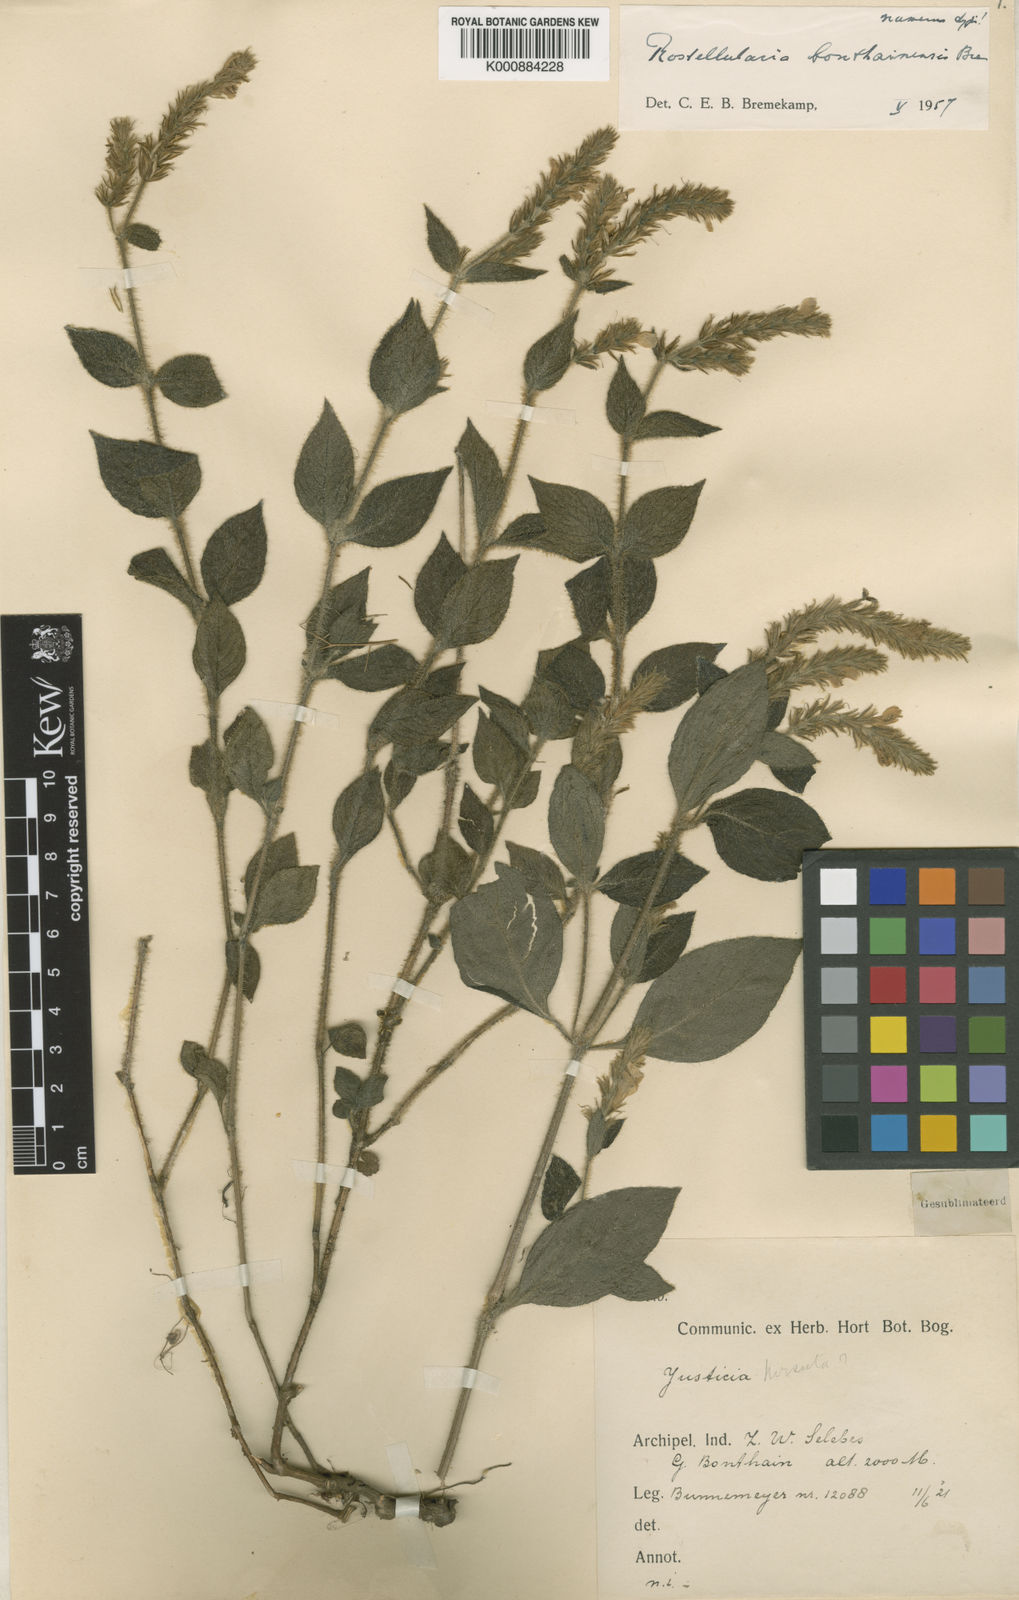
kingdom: Plantae
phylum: Tracheophyta
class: Magnoliopsida
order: Lamiales
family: Acanthaceae
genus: Justicia
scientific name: Justicia
